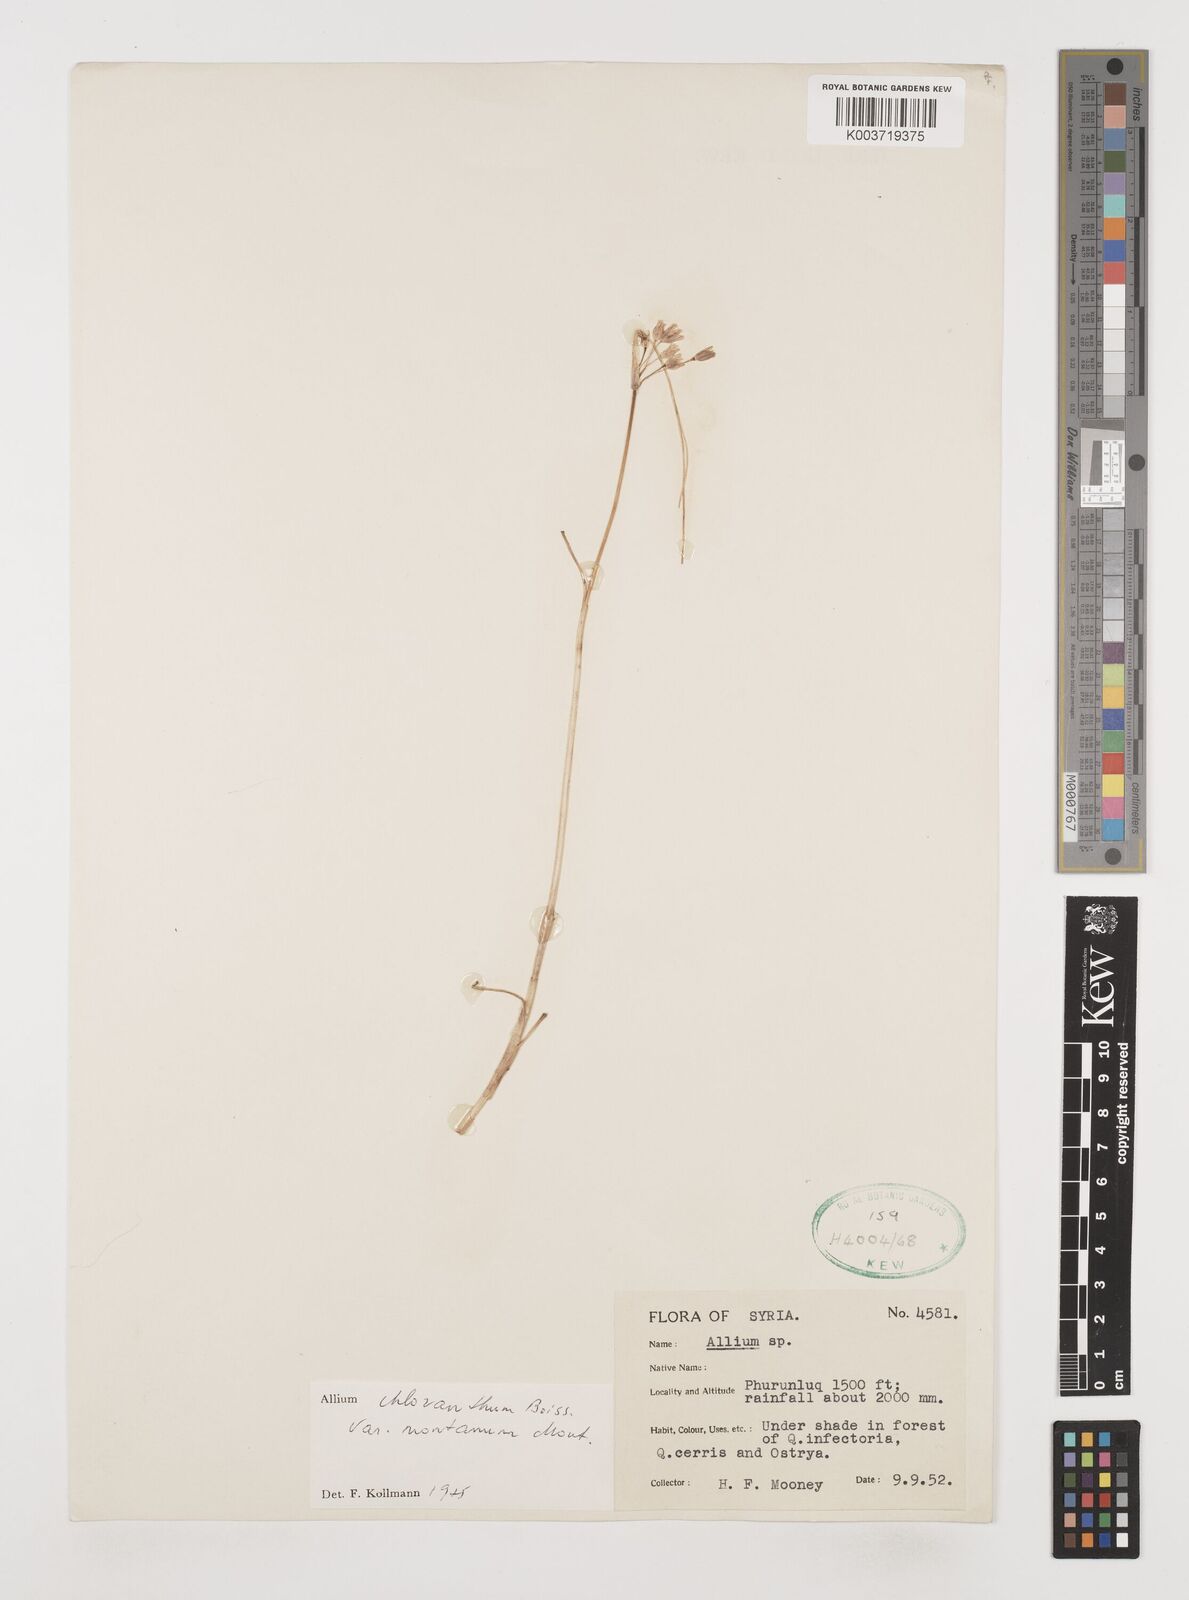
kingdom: Plantae
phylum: Tracheophyta
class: Liliopsida
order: Asparagales
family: Amaryllidaceae
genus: Allium
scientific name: Allium chloranthum
